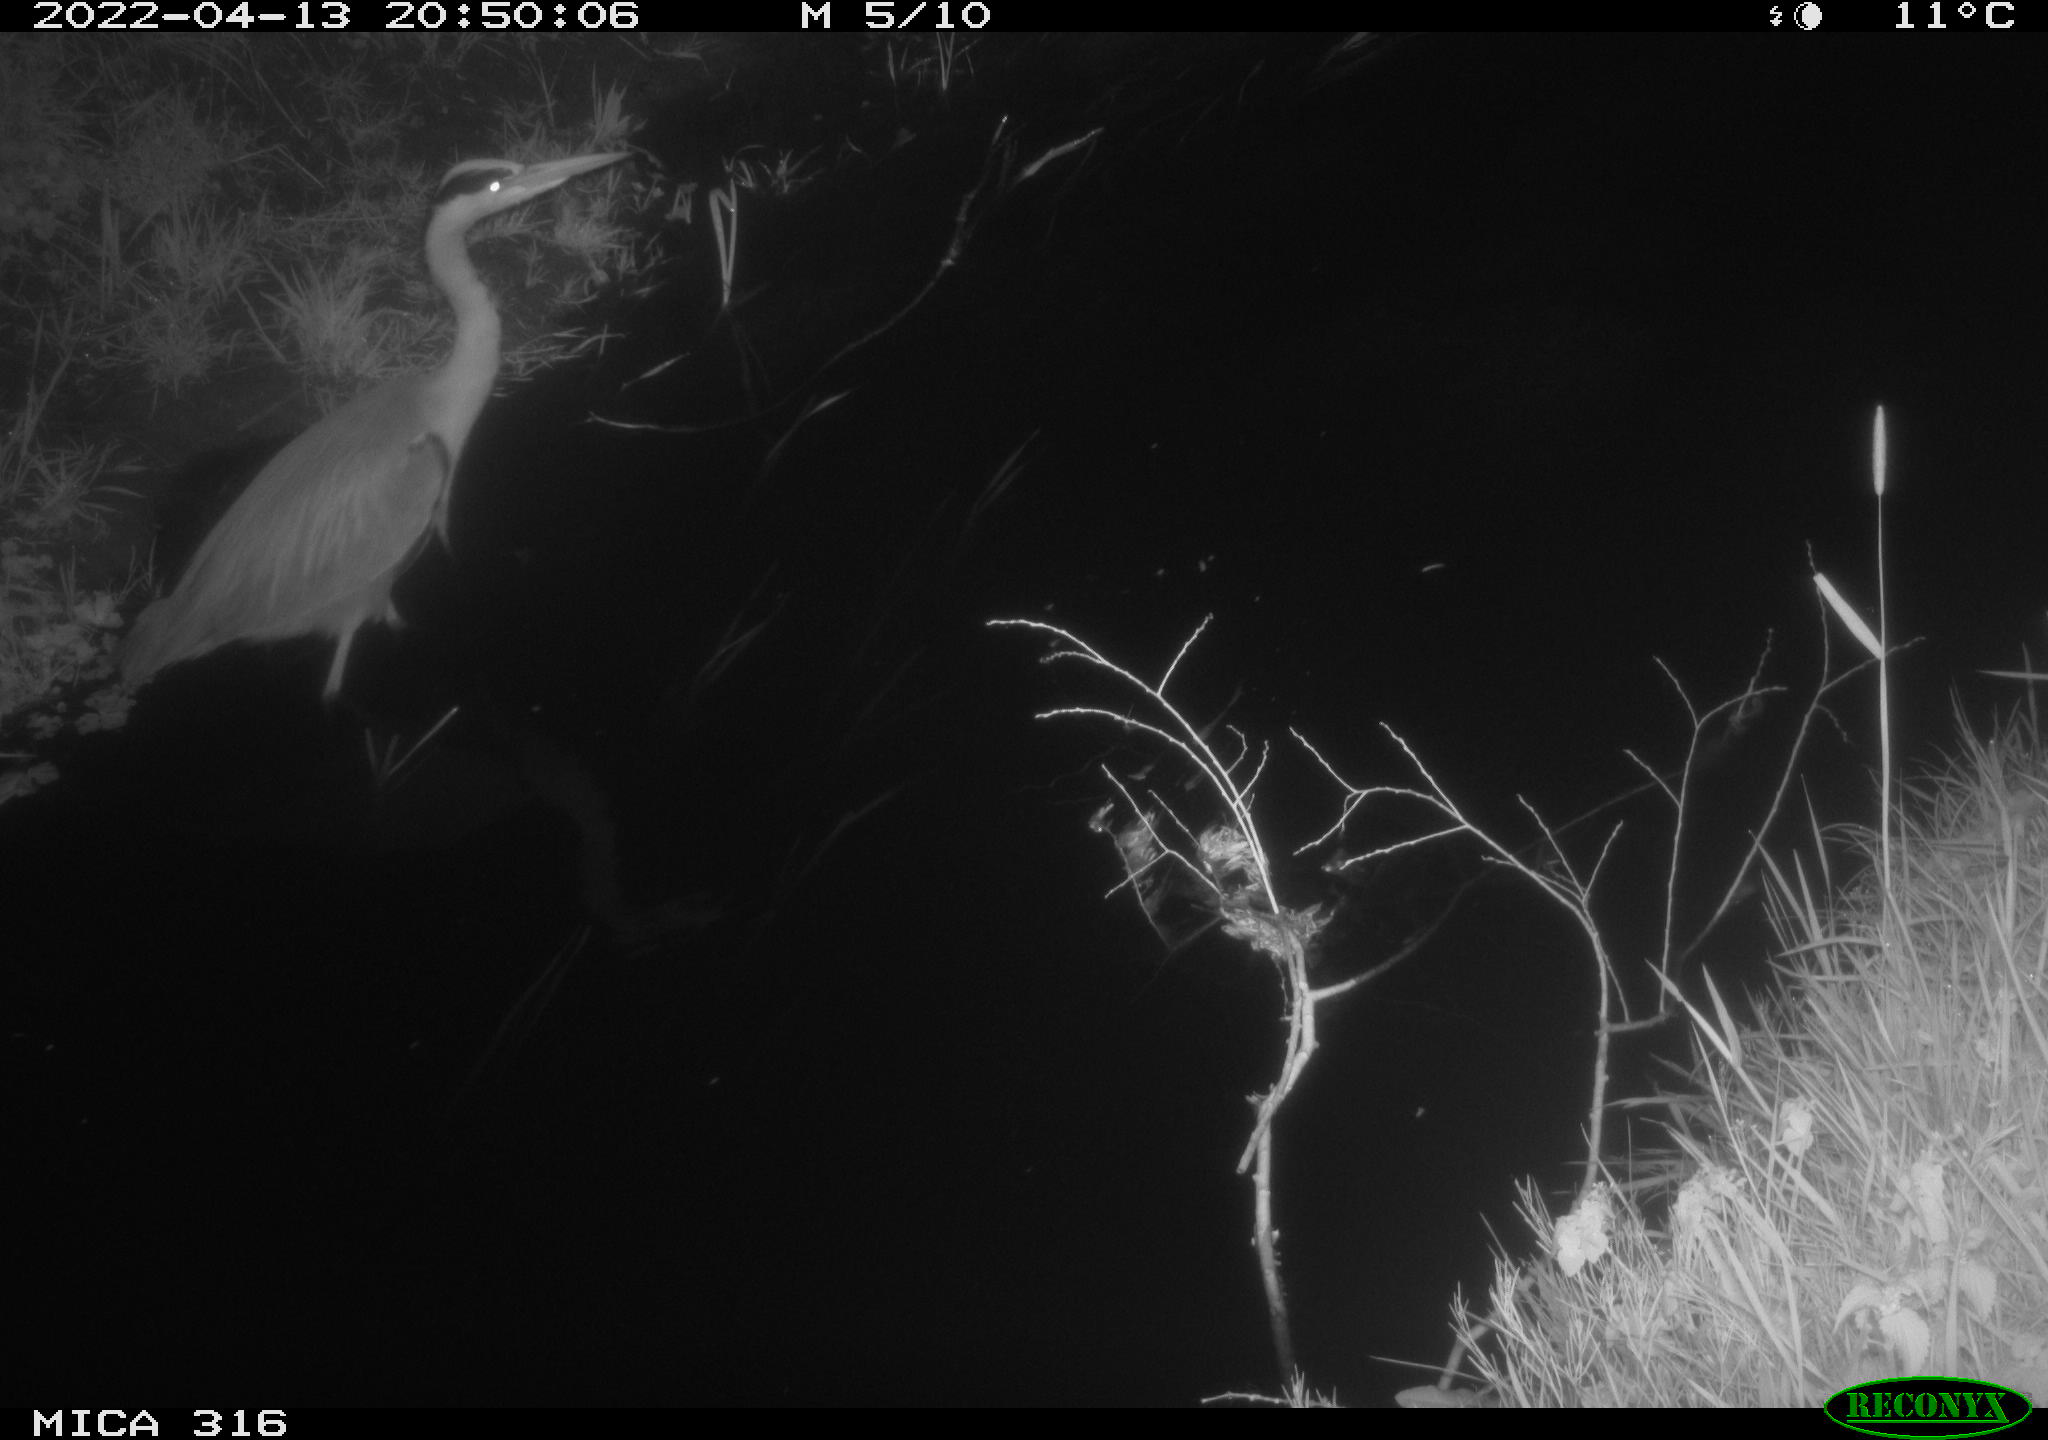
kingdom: Animalia
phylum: Chordata
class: Aves
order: Pelecaniformes
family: Ardeidae
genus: Ardea
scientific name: Ardea
